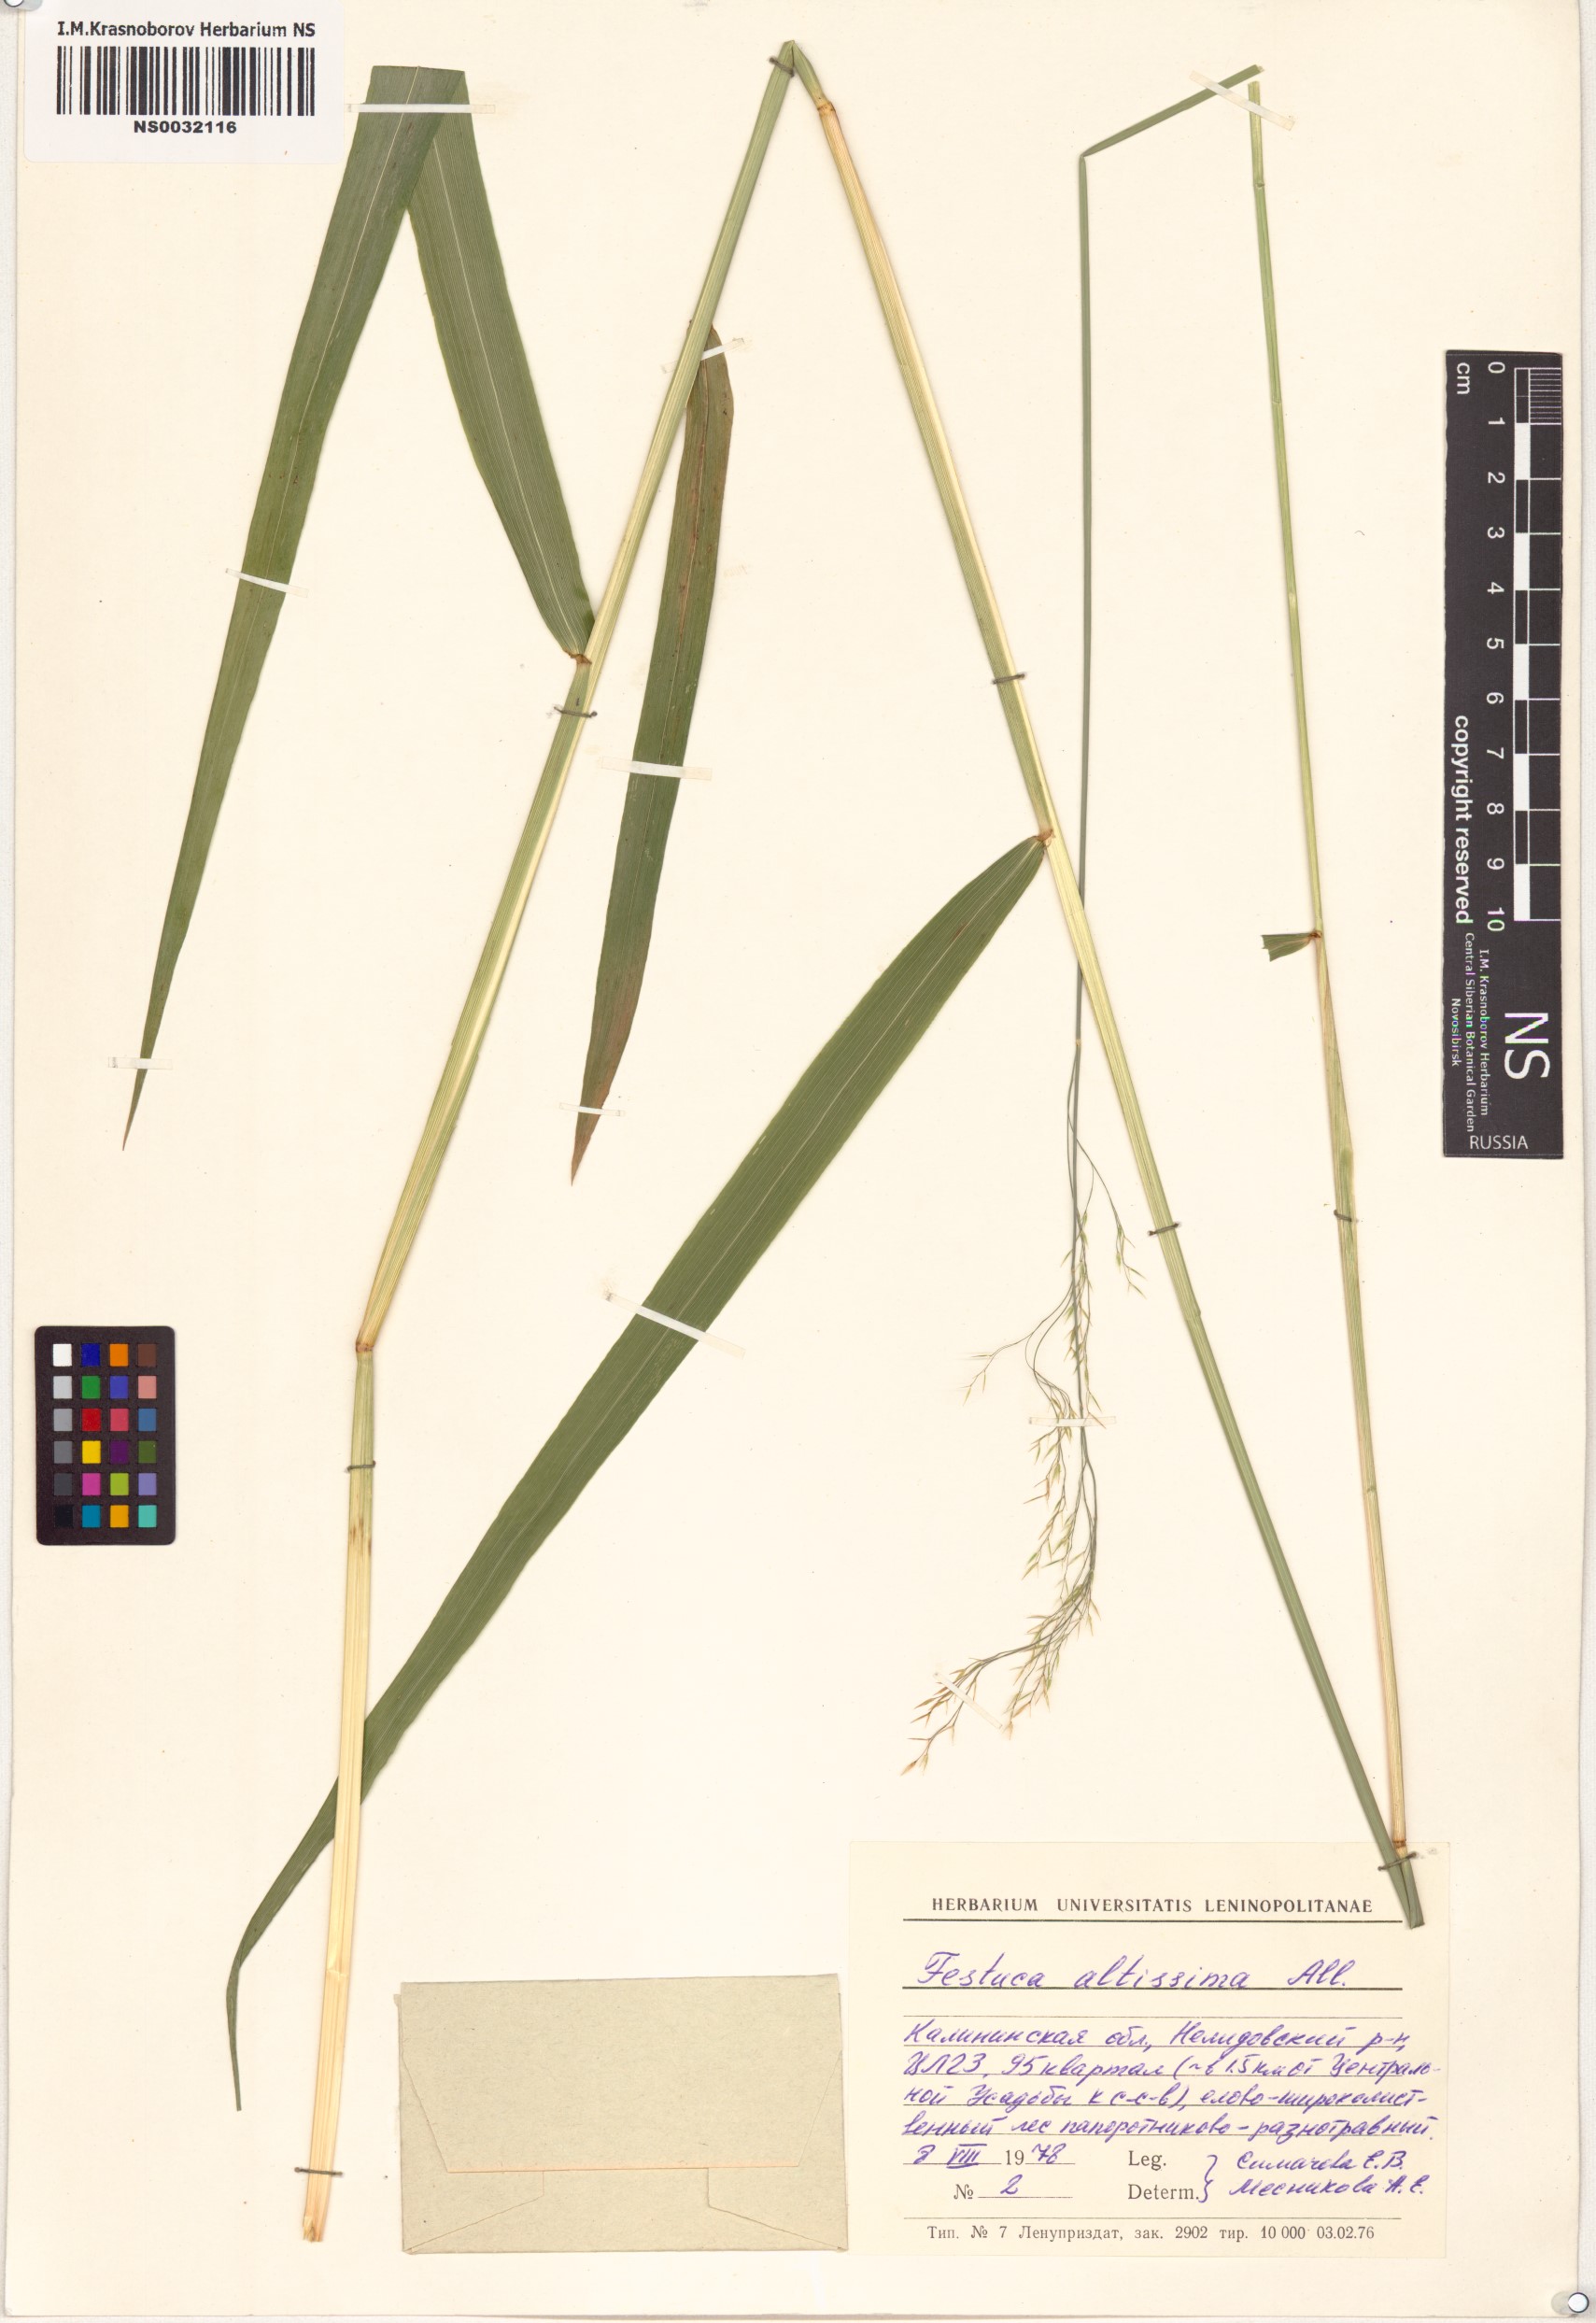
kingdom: Plantae
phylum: Tracheophyta
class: Liliopsida
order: Poales
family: Poaceae
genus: Festuca
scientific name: Festuca altissima
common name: Wood fescue
